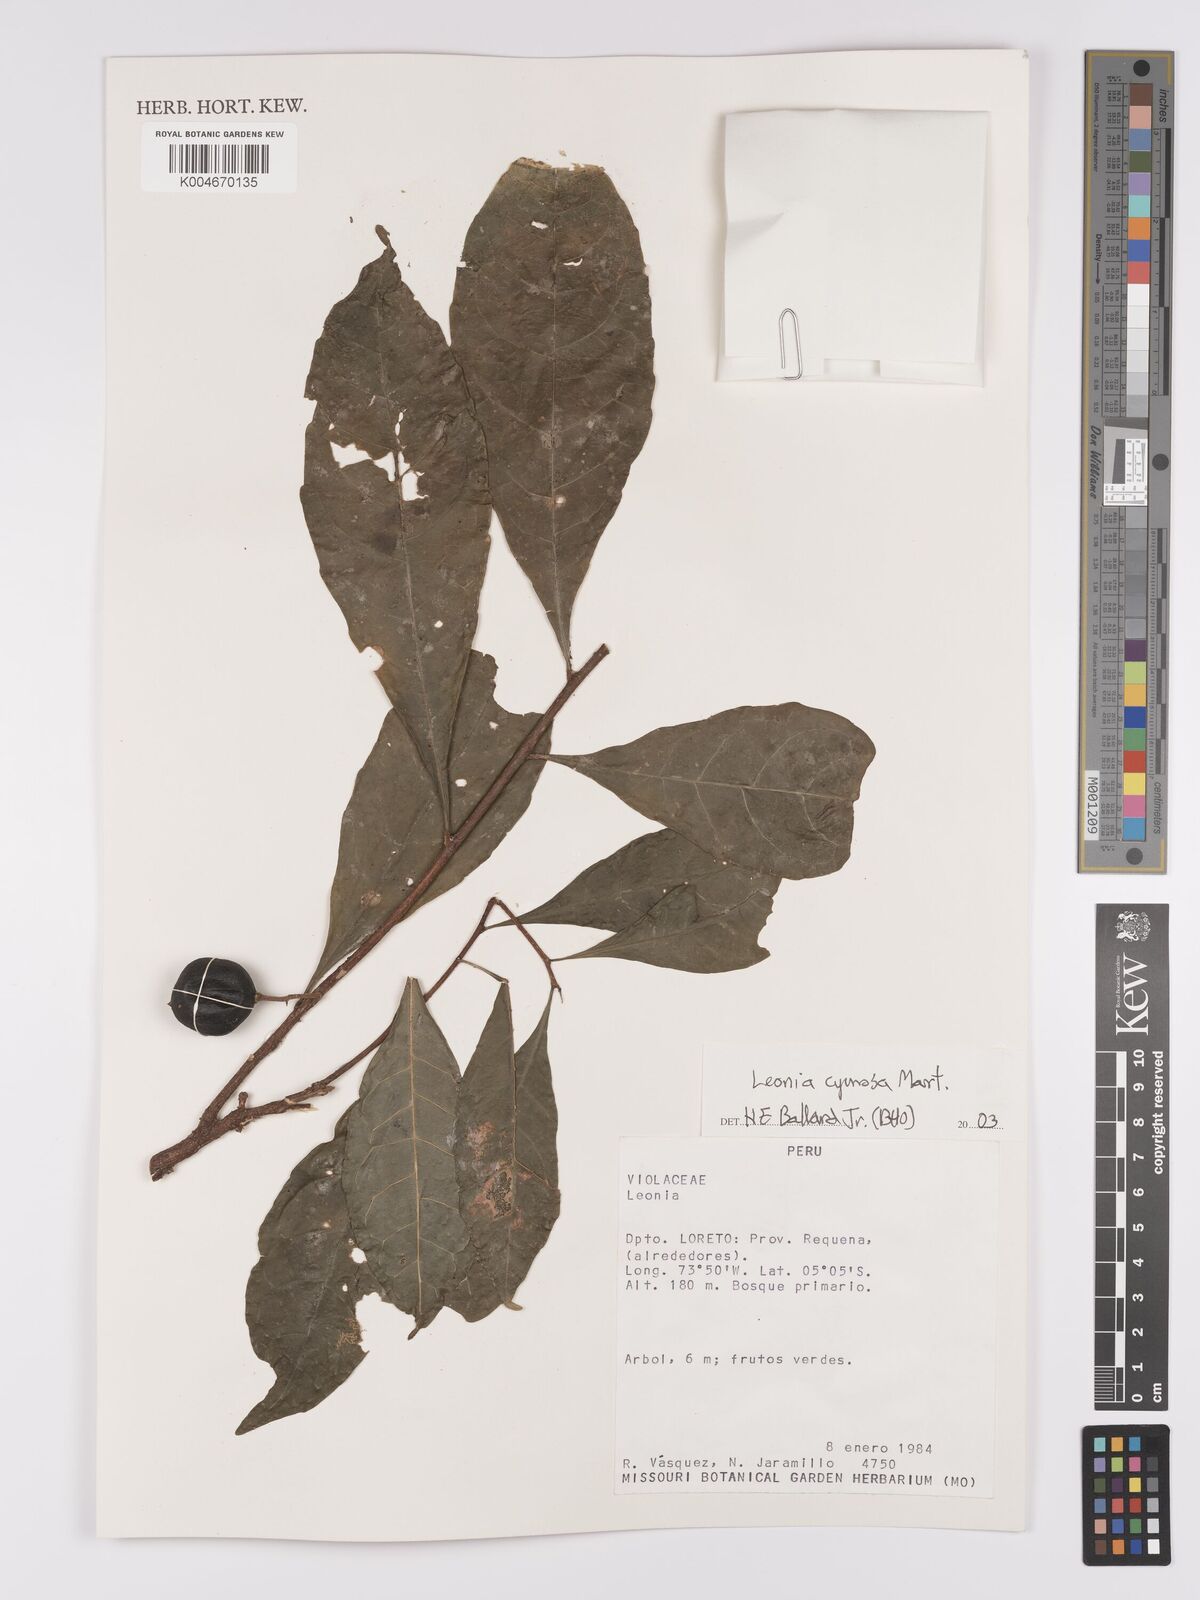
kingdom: Plantae
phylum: Tracheophyta
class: Magnoliopsida
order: Malpighiales
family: Violaceae
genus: Leonia
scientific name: Leonia cymosa
